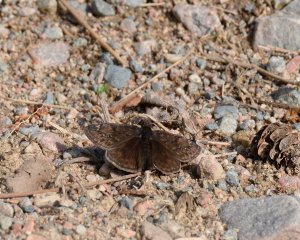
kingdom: Animalia
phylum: Arthropoda
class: Insecta
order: Lepidoptera
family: Hesperiidae
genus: Gesta
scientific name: Gesta
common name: Juvenal's Duskywing
